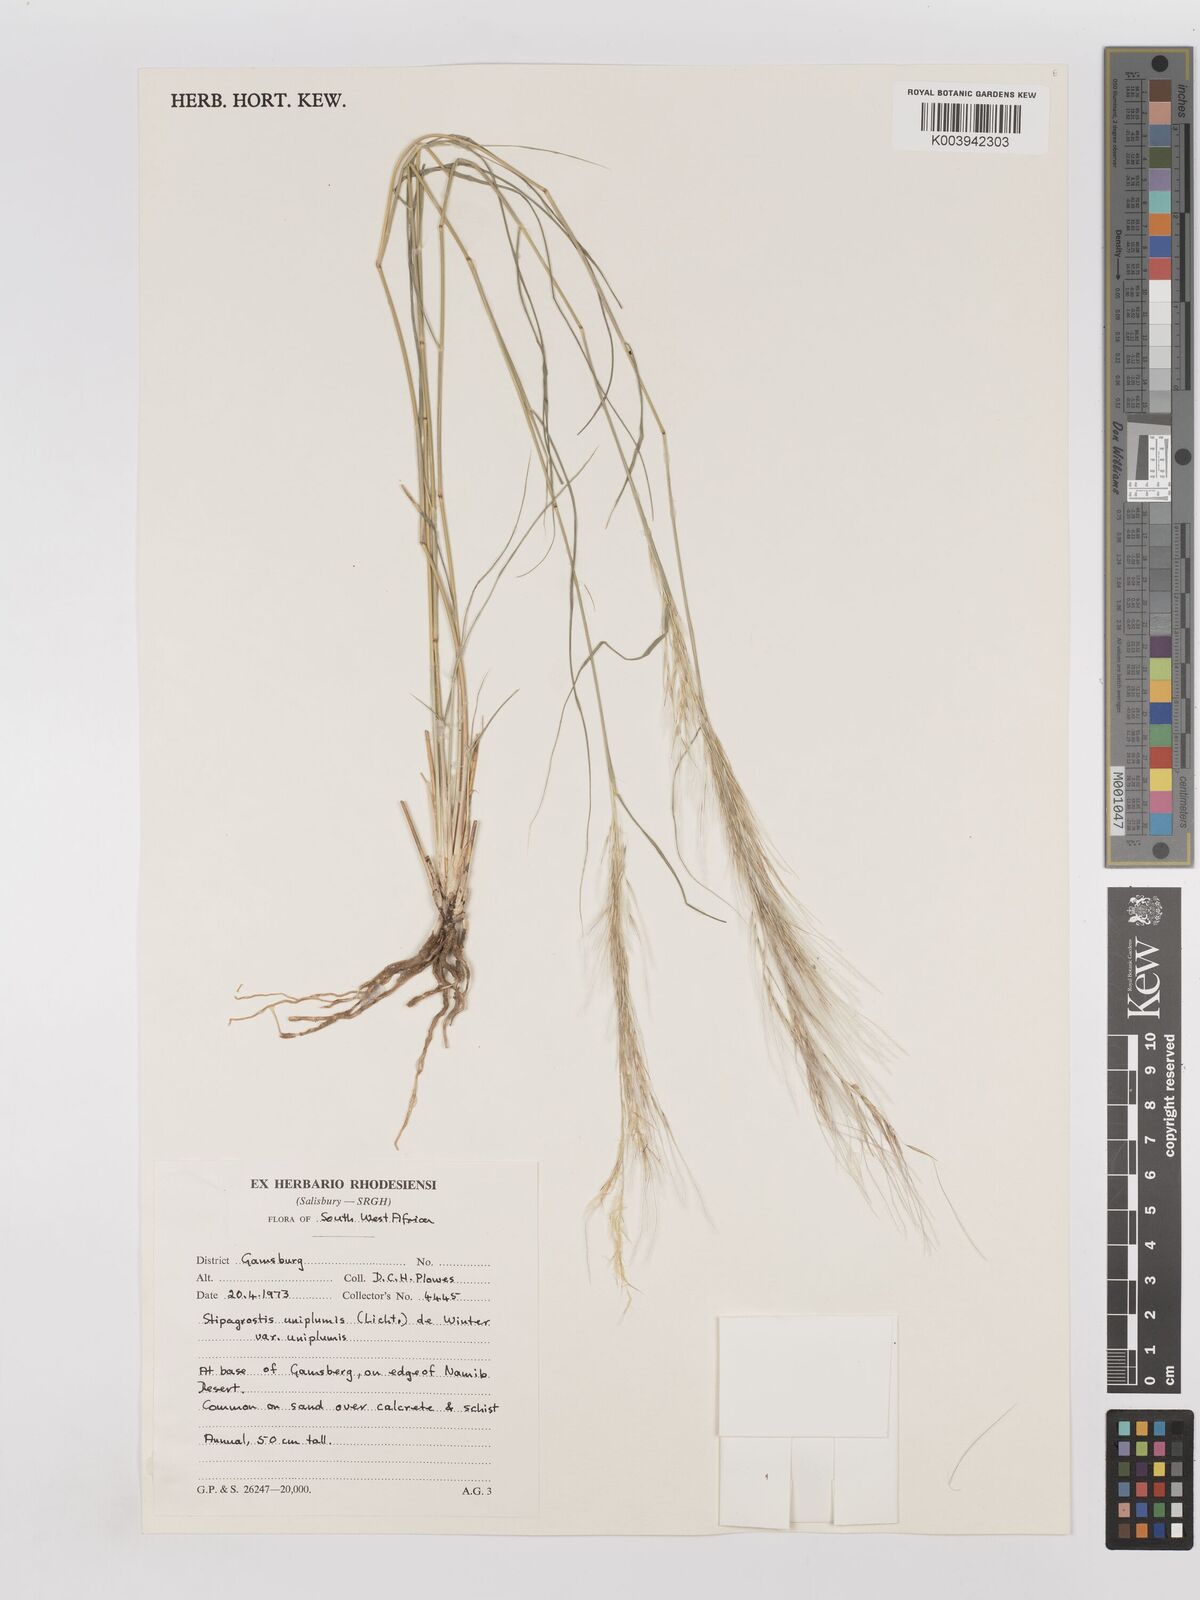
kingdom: Plantae
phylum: Tracheophyta
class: Liliopsida
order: Poales
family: Poaceae
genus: Stipagrostis
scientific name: Stipagrostis uniplumis
